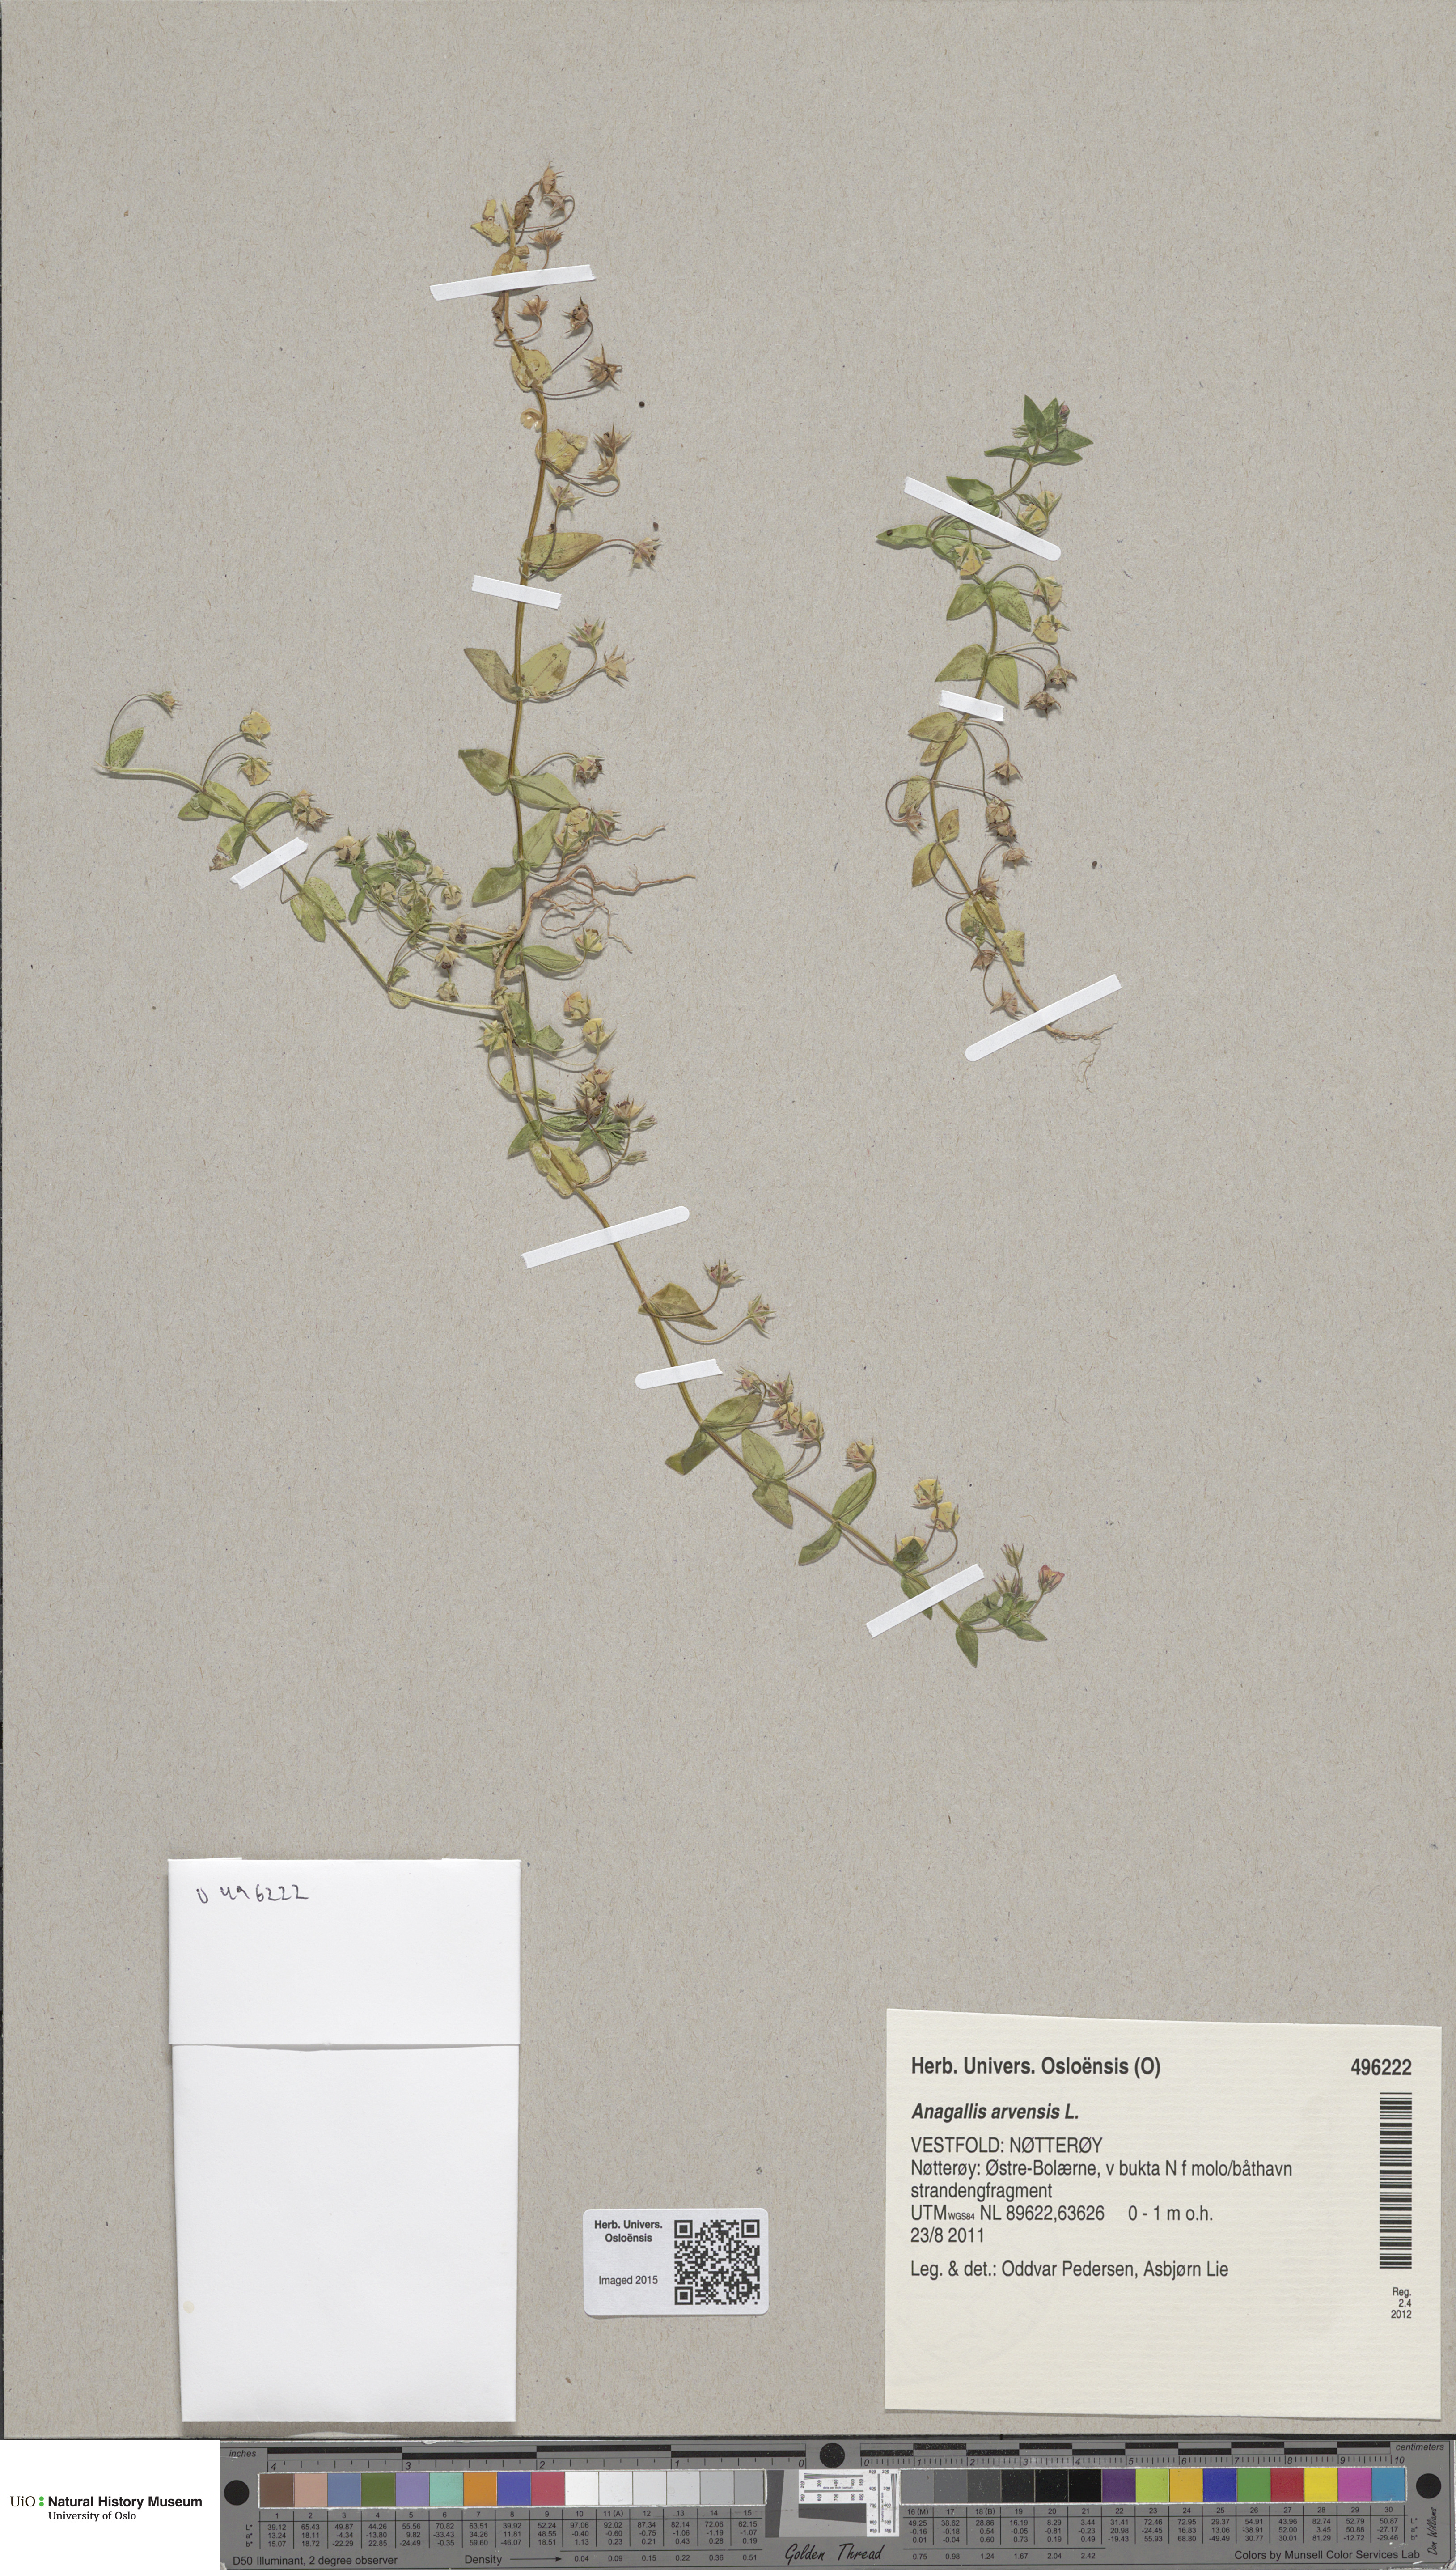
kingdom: Plantae
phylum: Tracheophyta
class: Magnoliopsida
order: Ericales
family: Primulaceae
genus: Lysimachia
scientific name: Lysimachia arvensis
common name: Scarlet pimpernel
